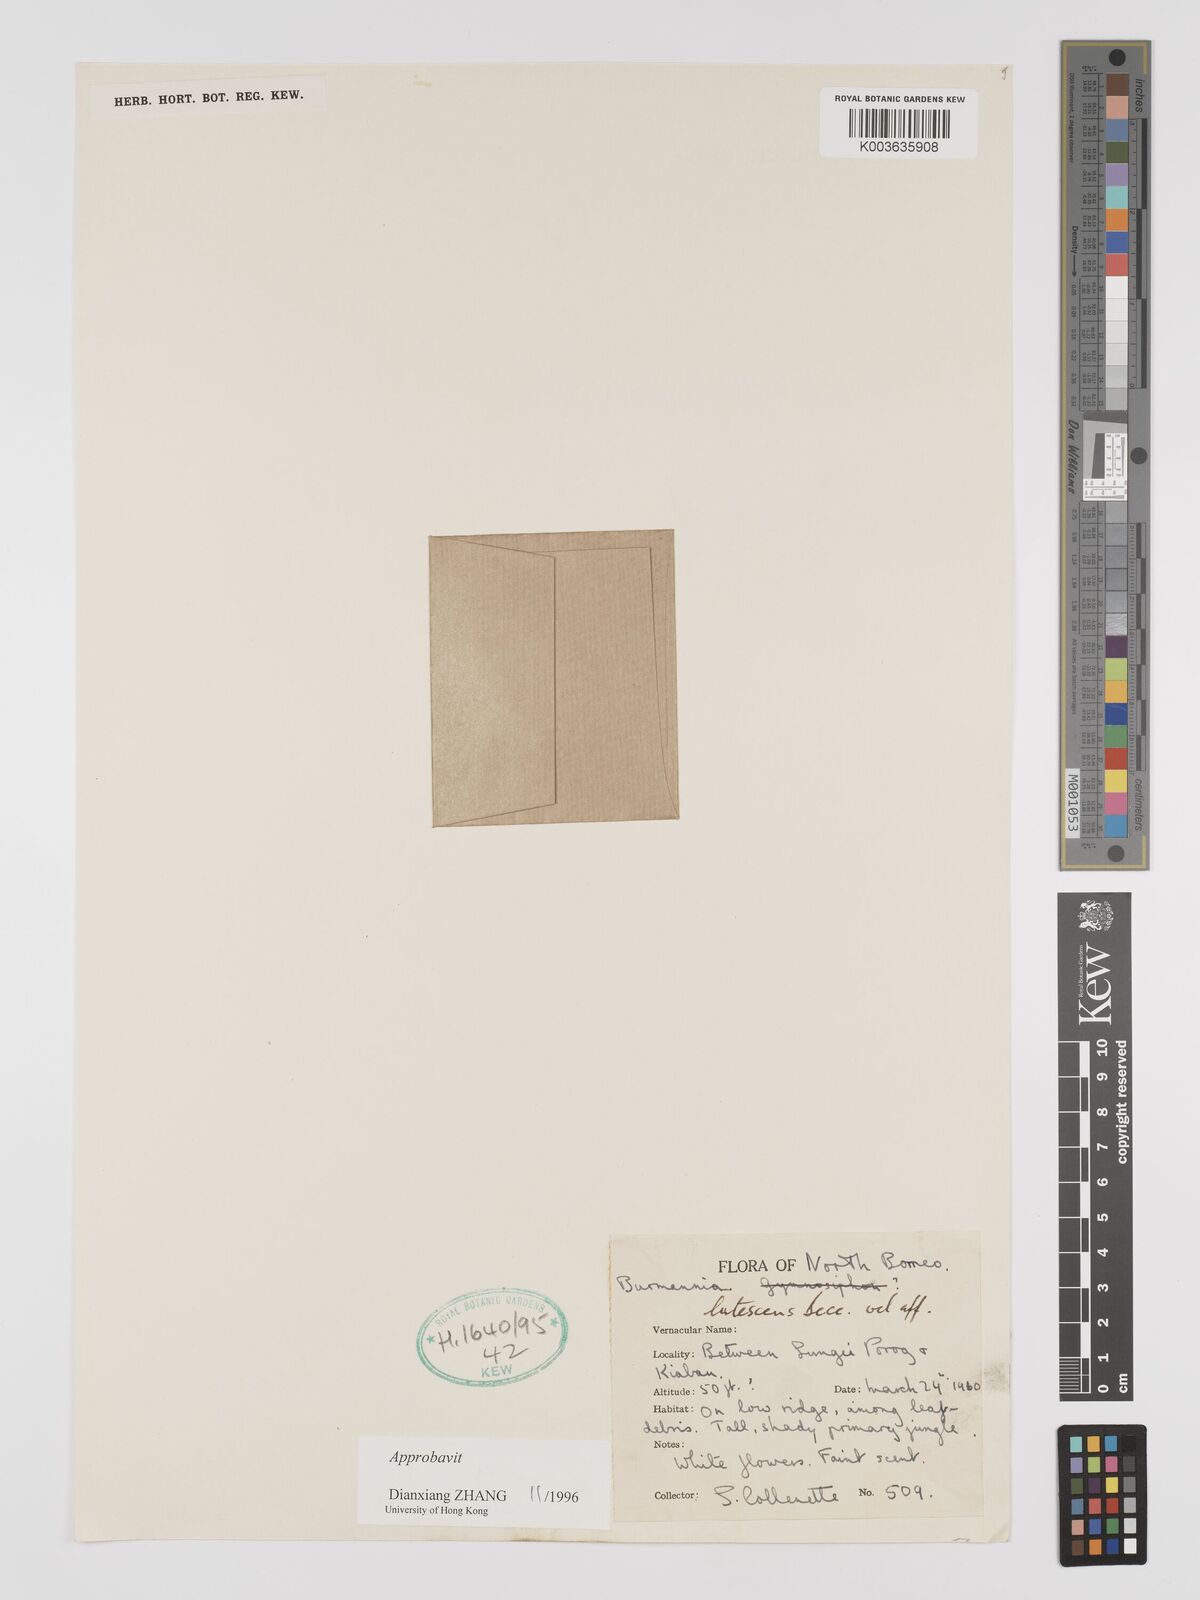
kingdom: Plantae
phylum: Tracheophyta
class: Liliopsida
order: Dioscoreales
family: Burmanniaceae
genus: Burmannia
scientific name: Burmannia lutescens
